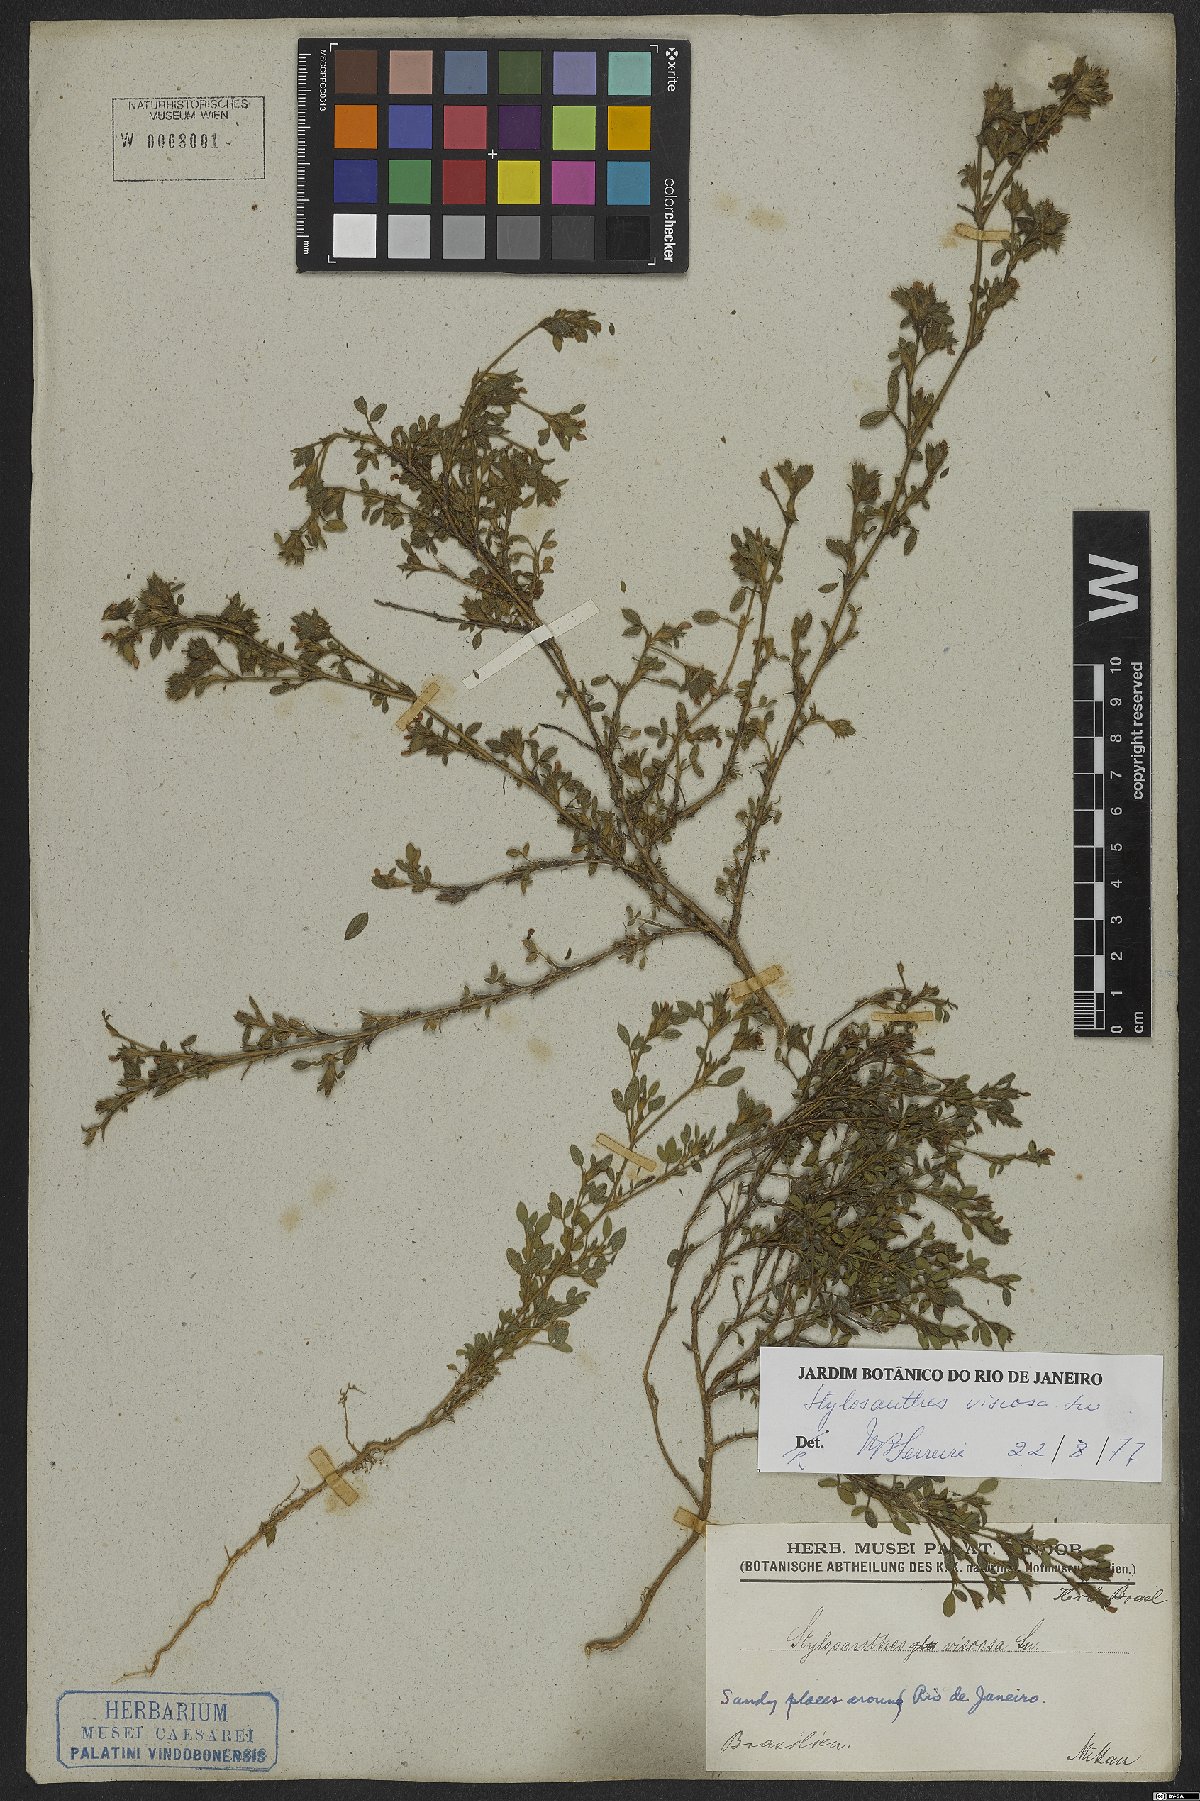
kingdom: Plantae
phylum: Tracheophyta
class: Magnoliopsida
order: Fabales
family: Fabaceae
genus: Stylosanthes
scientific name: Stylosanthes viscosa
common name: Viscid pencil-flower
